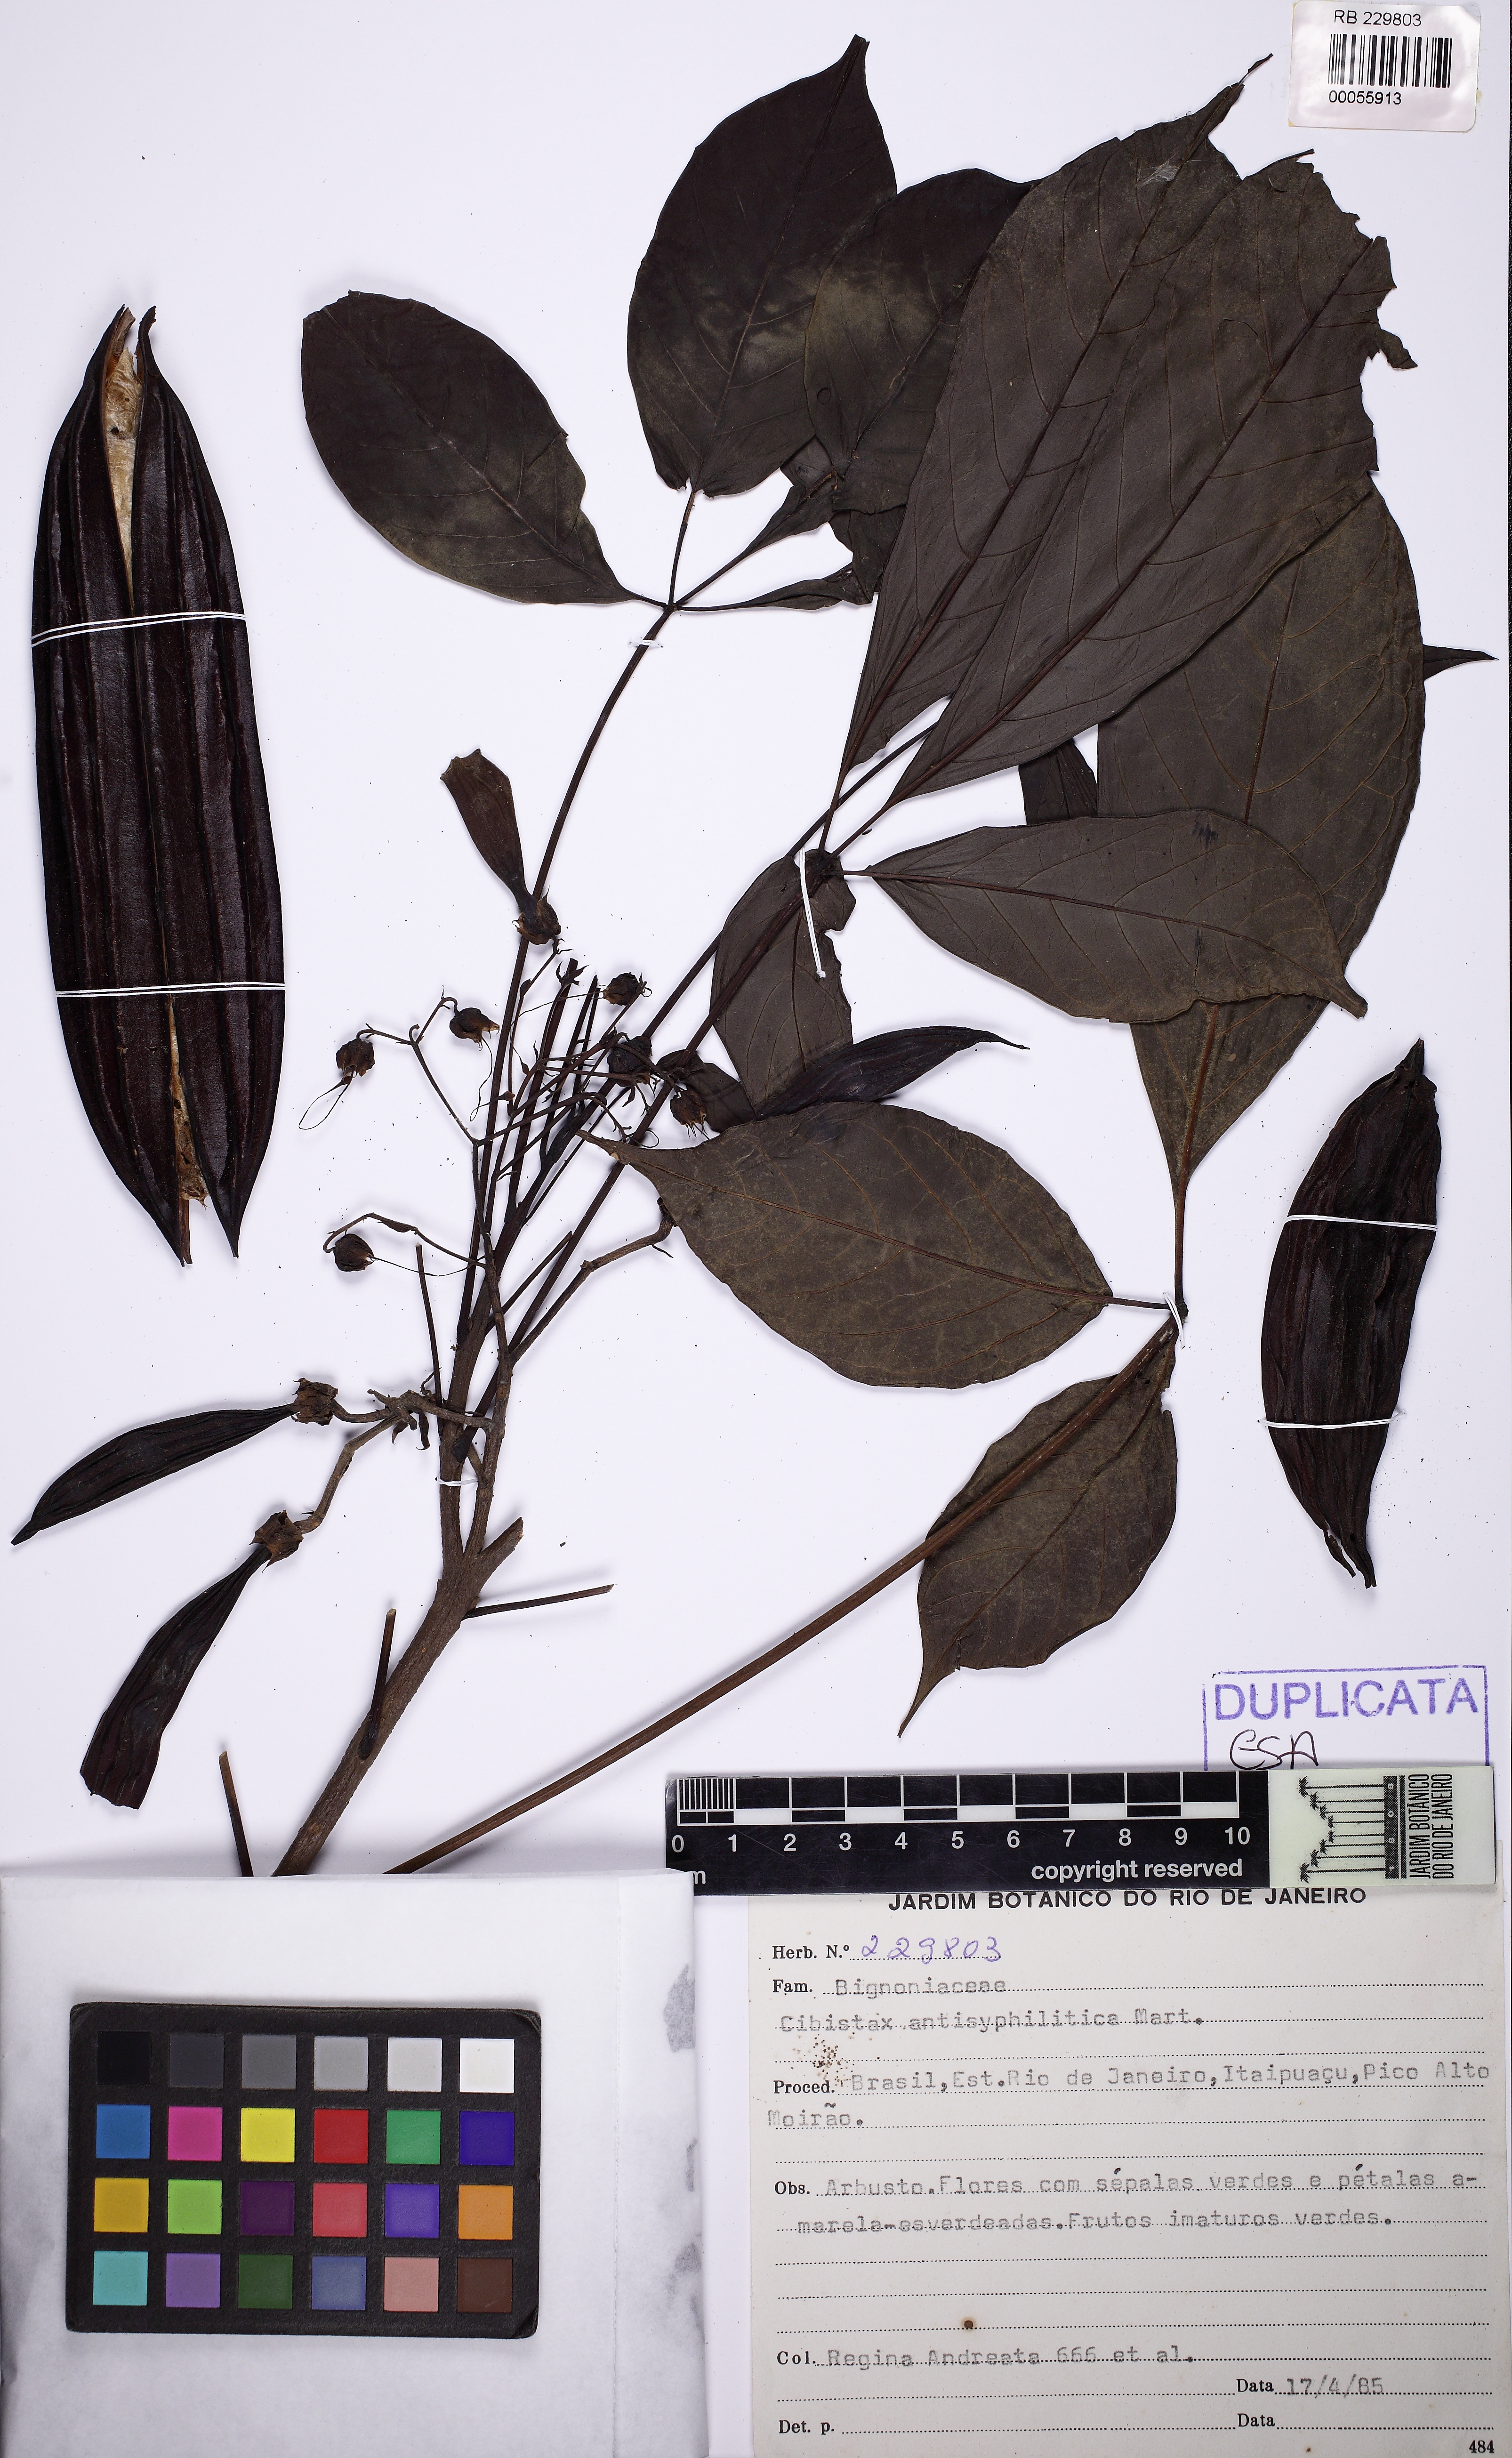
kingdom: Plantae
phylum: Tracheophyta
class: Magnoliopsida
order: Lamiales
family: Bignoniaceae
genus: Cybistax
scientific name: Cybistax antisyphilitica
